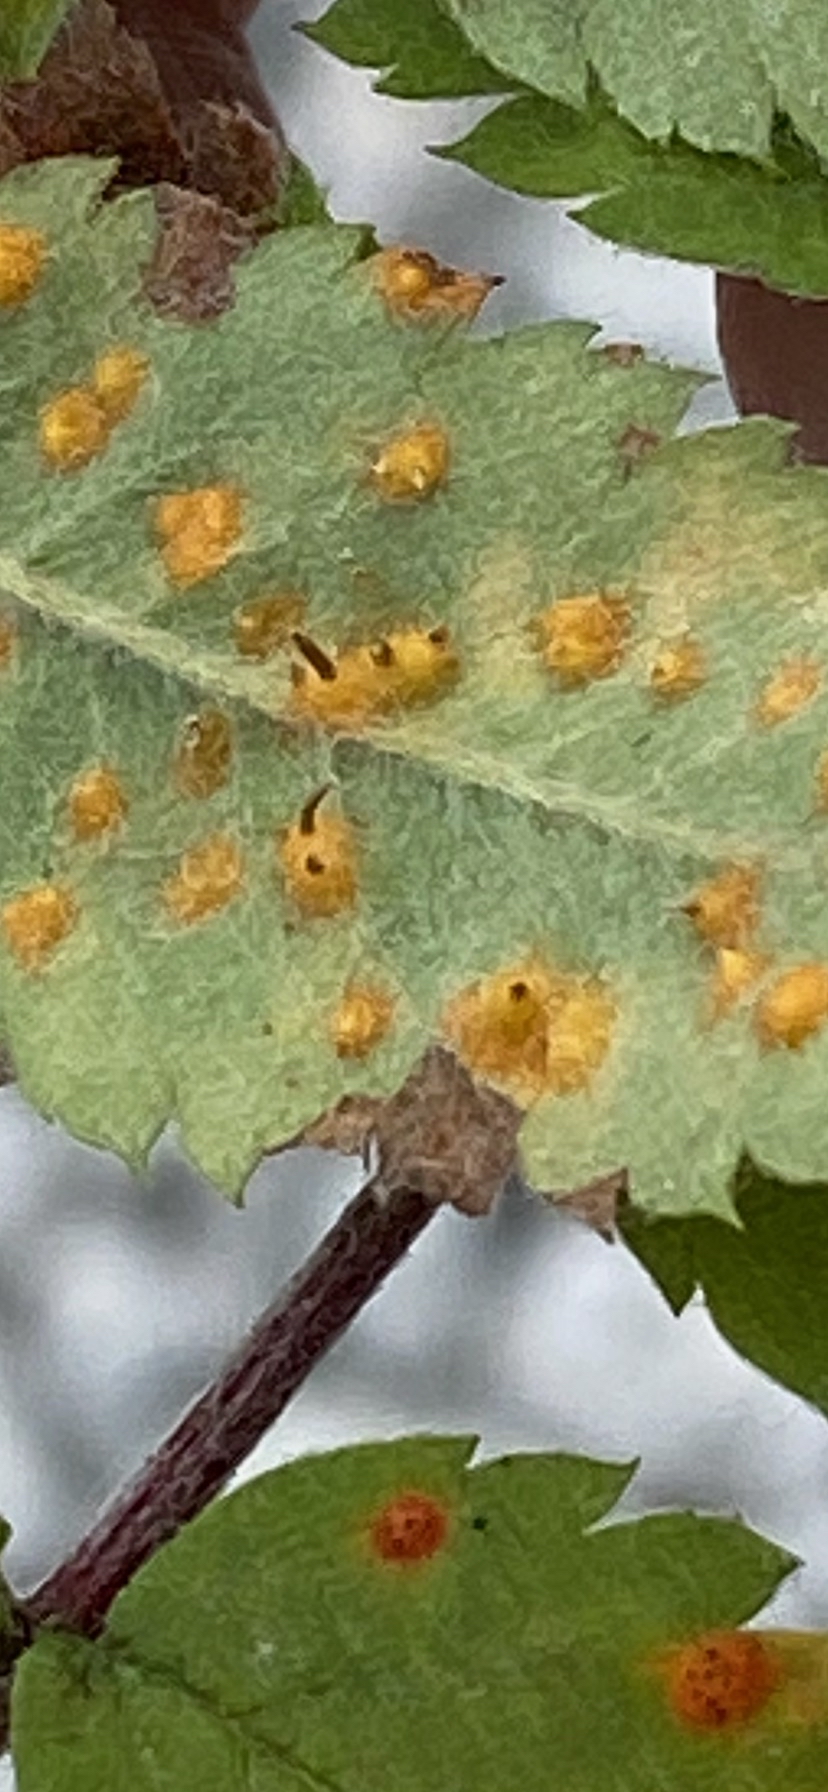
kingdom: Fungi
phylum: Basidiomycota
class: Pucciniomycetes
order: Pucciniales
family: Gymnosporangiaceae
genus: Gymnosporangium
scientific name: Gymnosporangium cornutum
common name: rønnehorn-bævrerust
